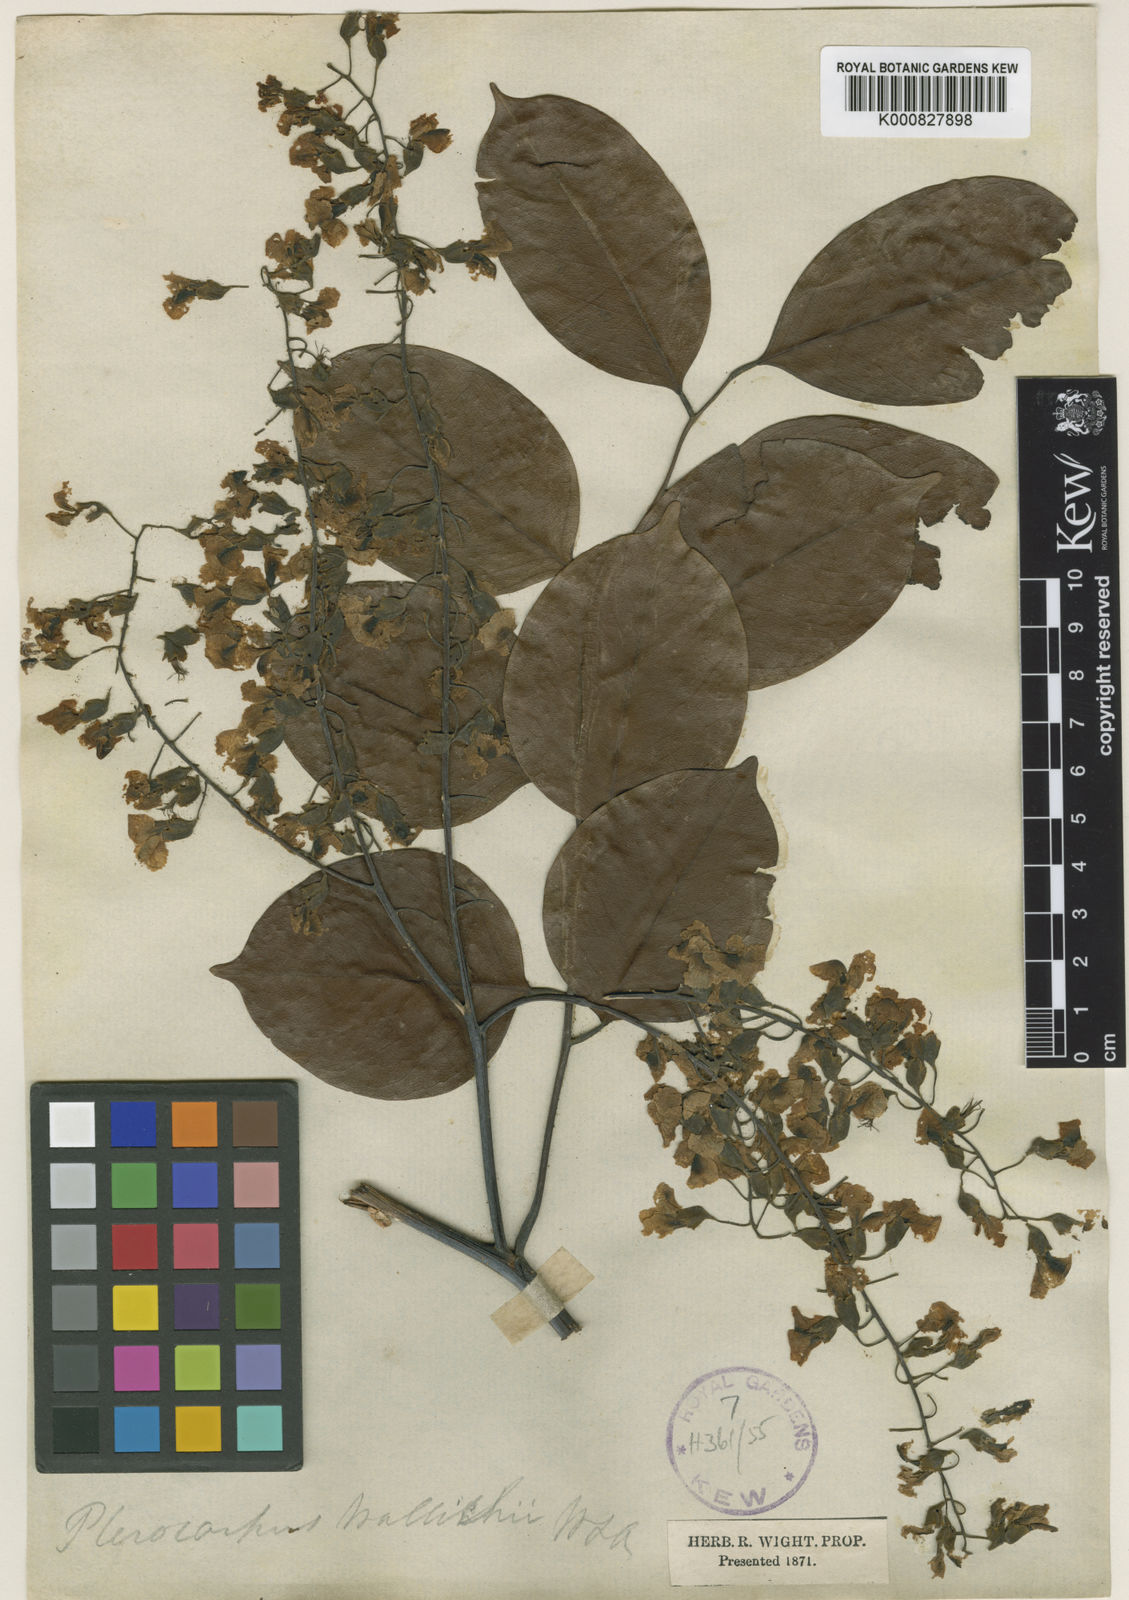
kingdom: Plantae
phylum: Tracheophyta
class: Magnoliopsida
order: Fabales
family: Fabaceae
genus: Pterocarpus
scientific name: Pterocarpus indicus
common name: Burmese rosewood
